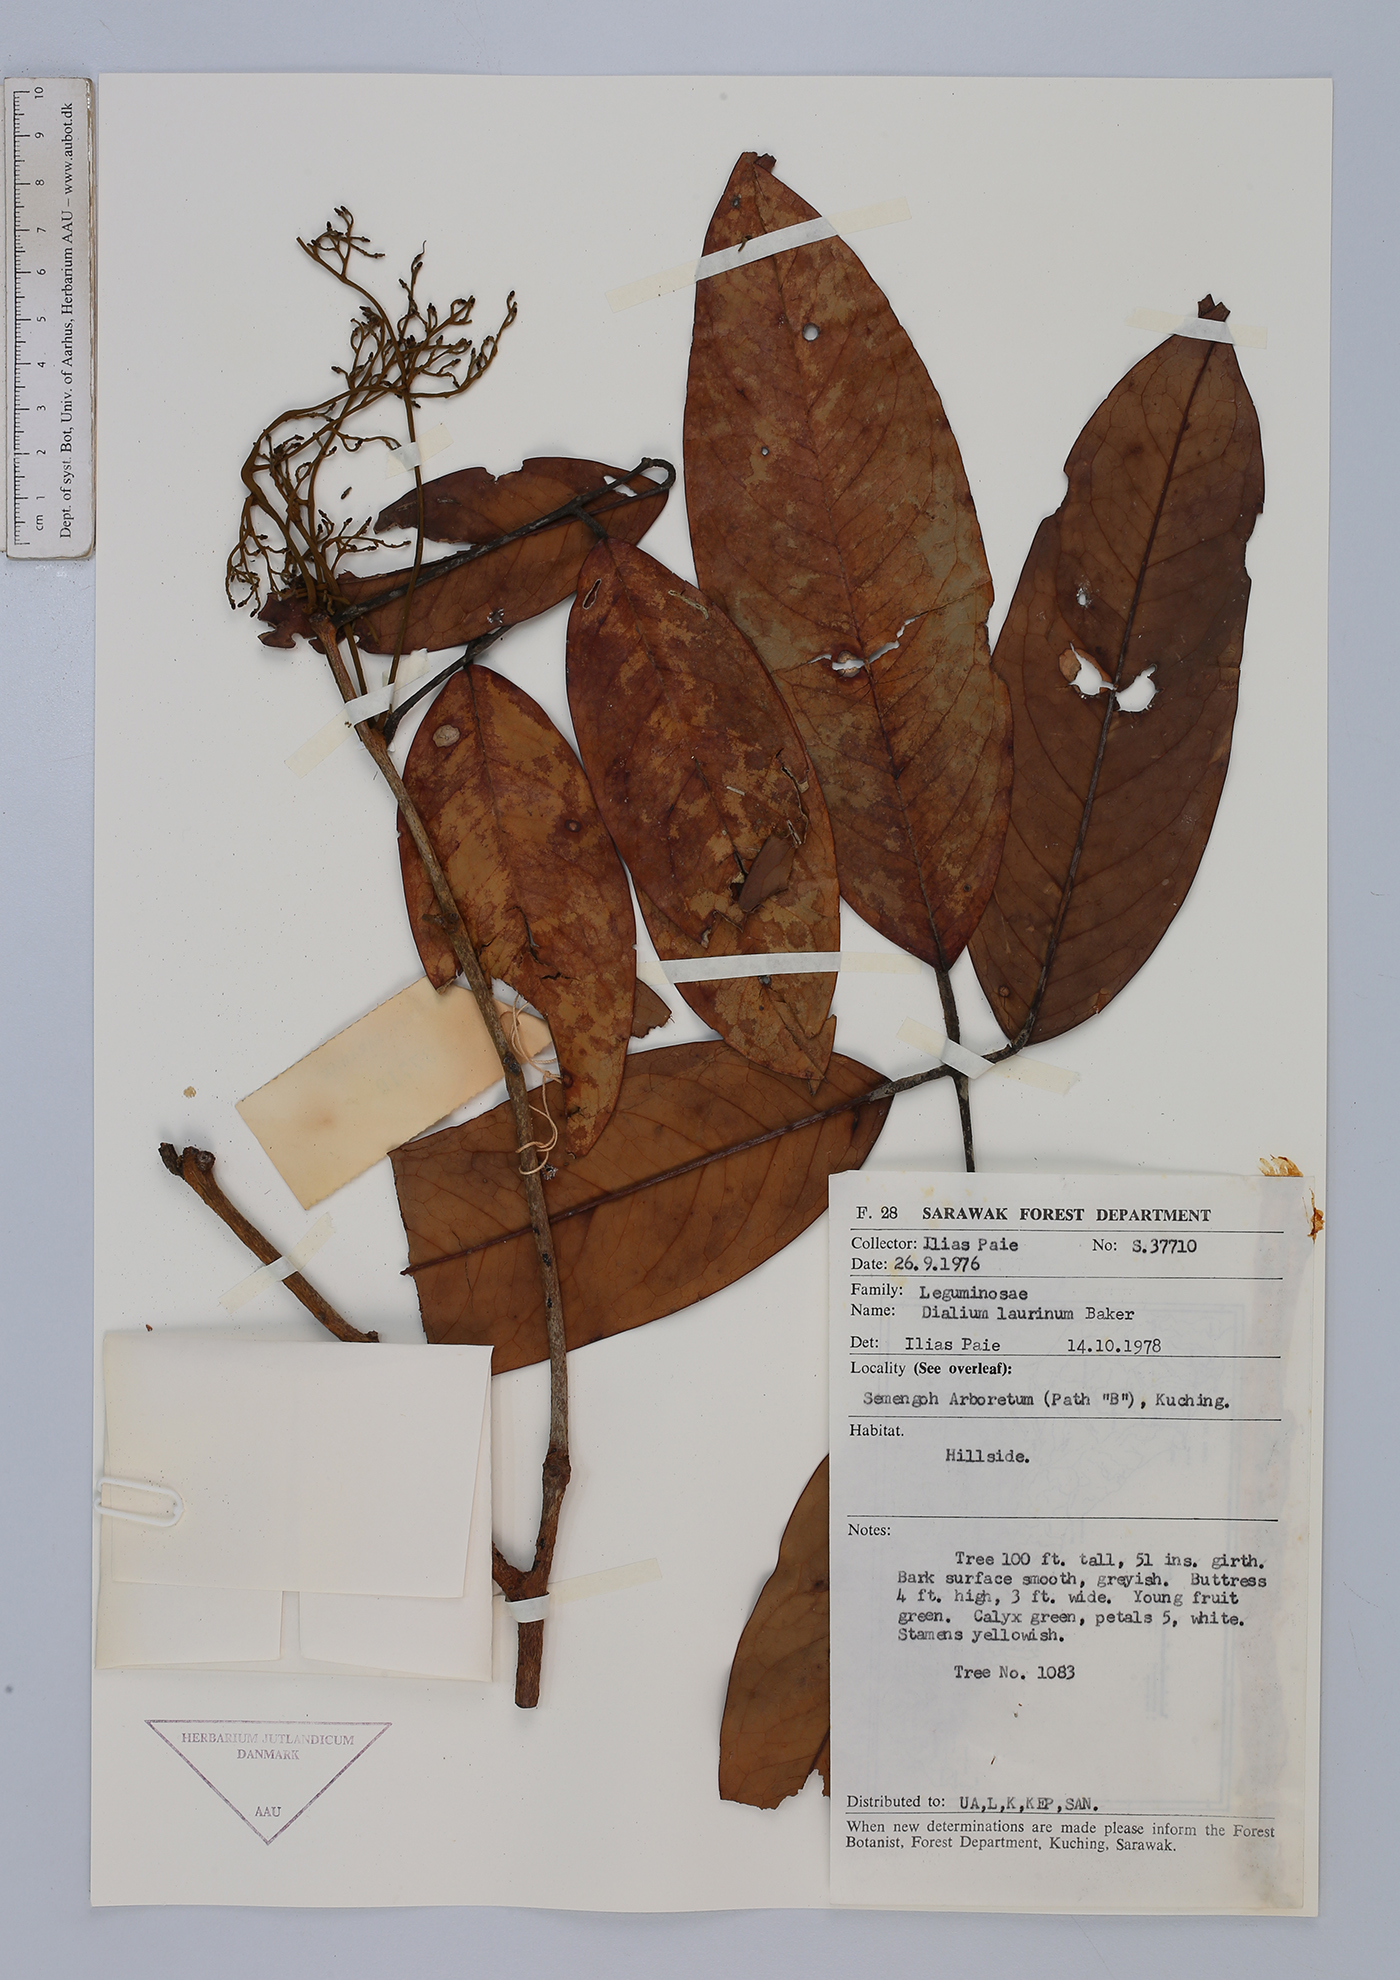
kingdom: Plantae
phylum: Tracheophyta
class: Magnoliopsida
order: Fabales
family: Fabaceae
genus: Dialium
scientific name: Dialium indum
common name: Tamarind-plum
